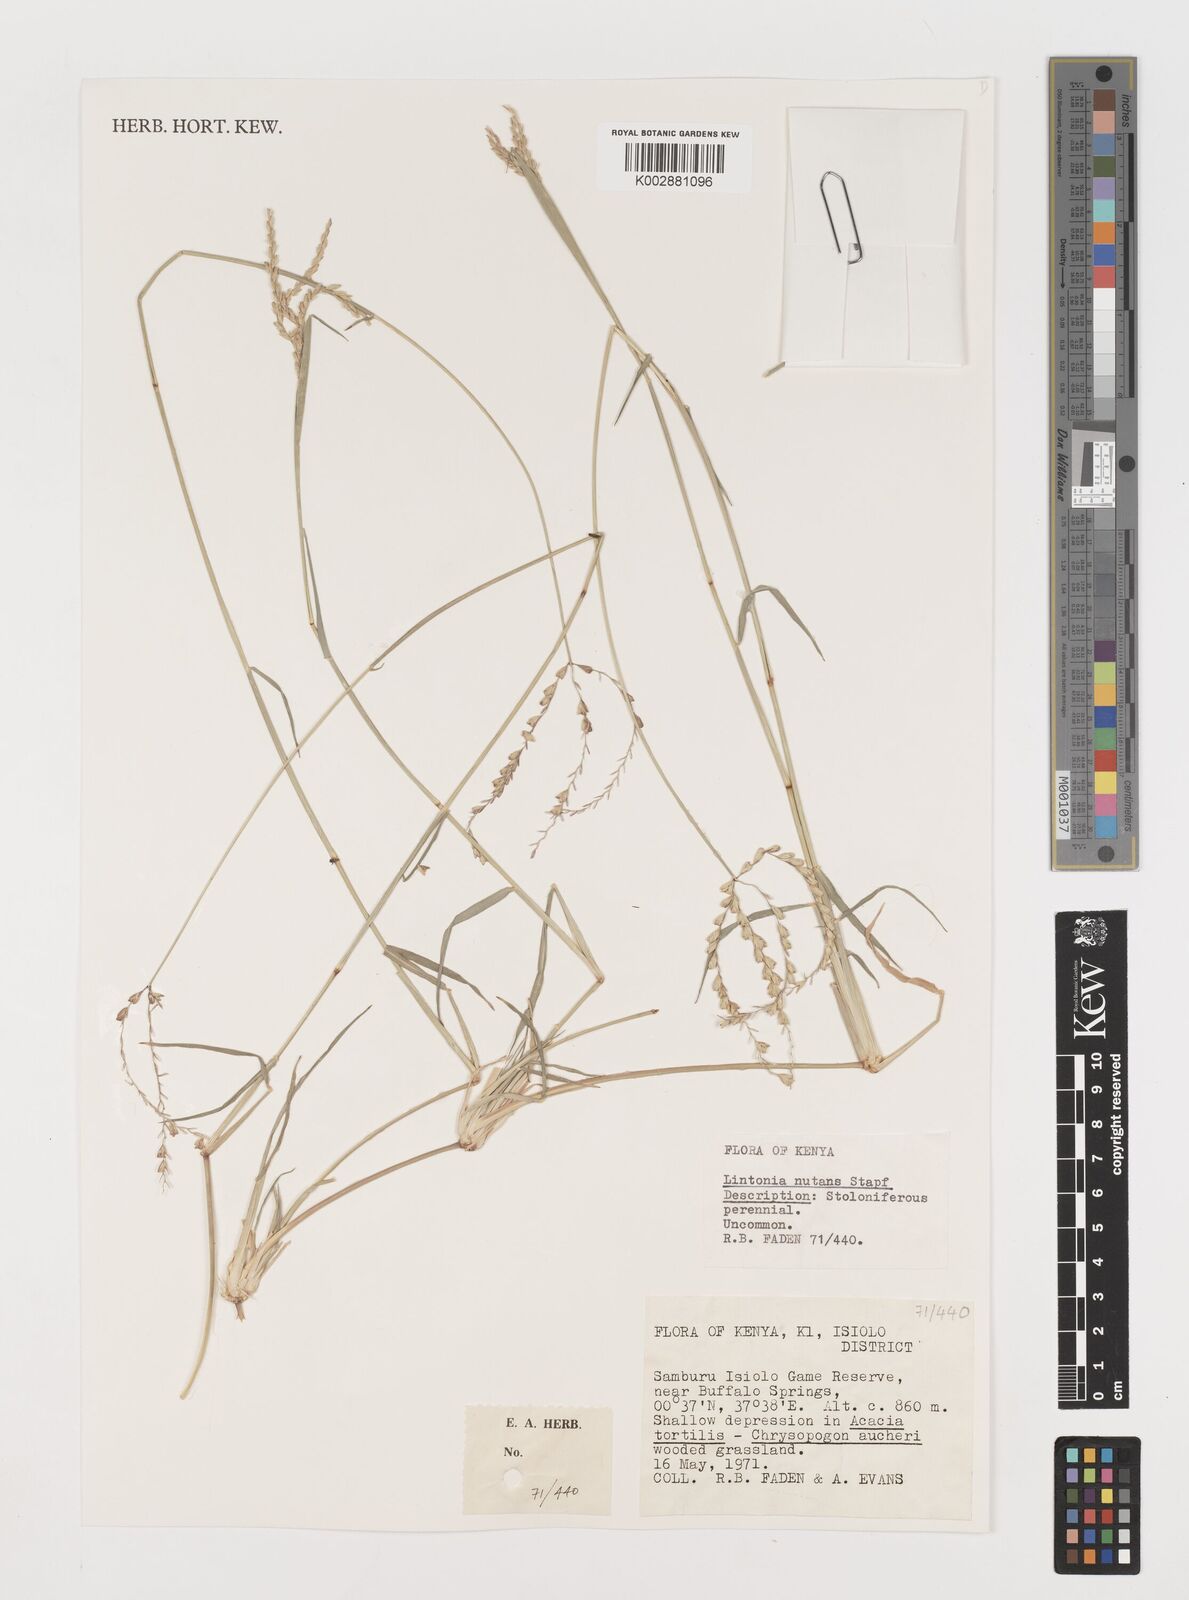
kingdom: Plantae
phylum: Tracheophyta
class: Liliopsida
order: Poales
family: Poaceae
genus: Chloris
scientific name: Chloris nutans
